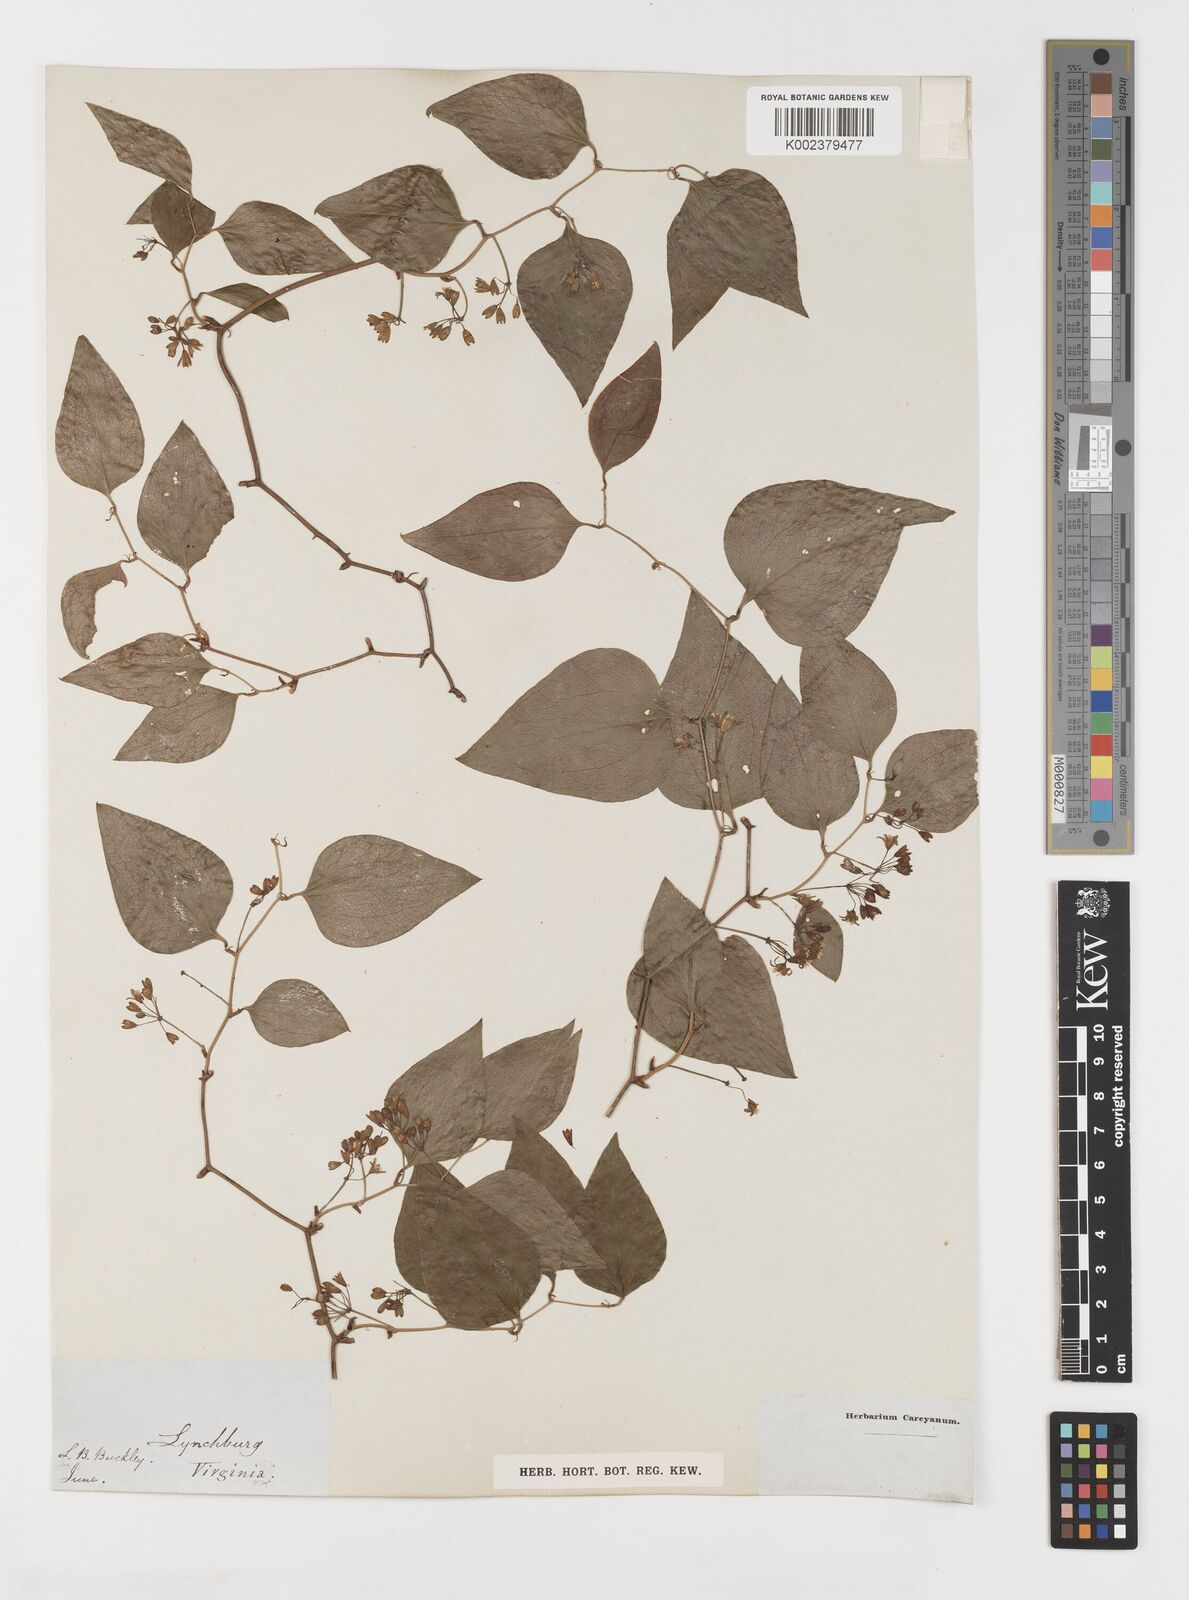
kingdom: Plantae
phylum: Tracheophyta
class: Liliopsida
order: Liliales
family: Smilacaceae
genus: Smilax
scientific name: Smilax
